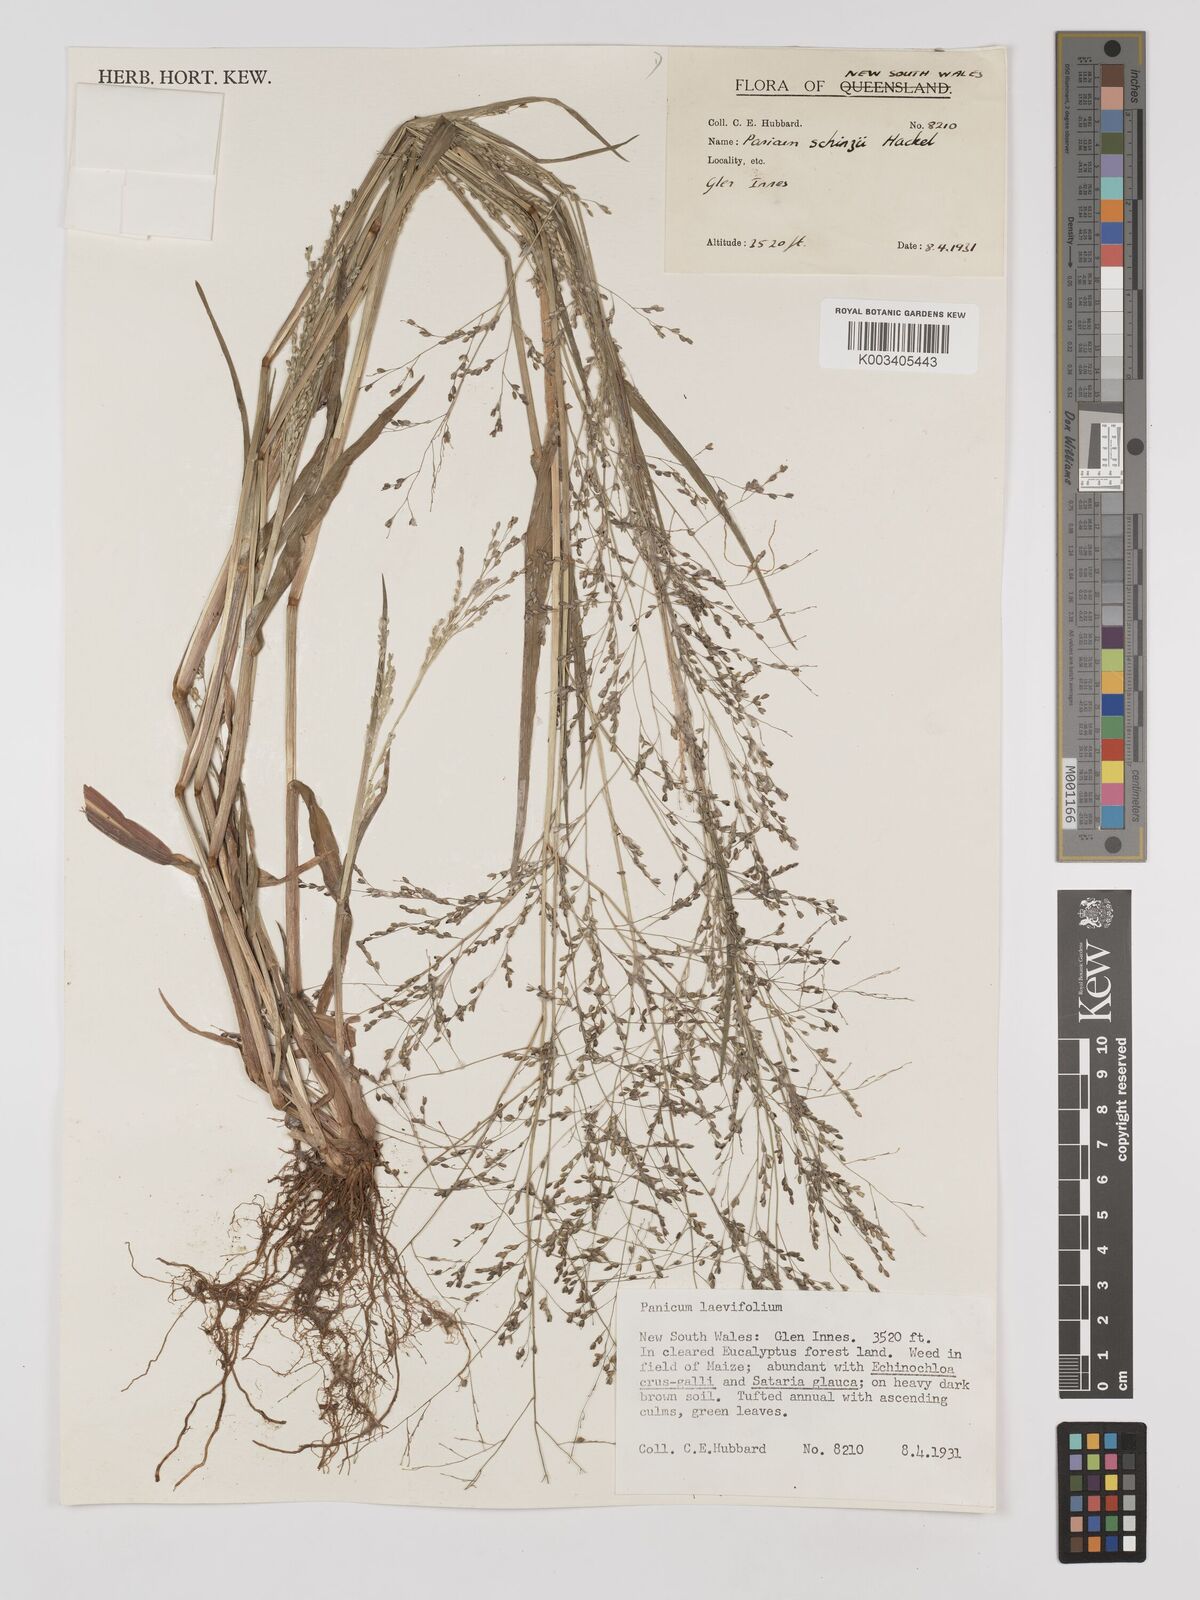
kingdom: Plantae
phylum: Tracheophyta
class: Liliopsida
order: Poales
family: Poaceae
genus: Panicum
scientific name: Panicum schinzii
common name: Sweet grass
